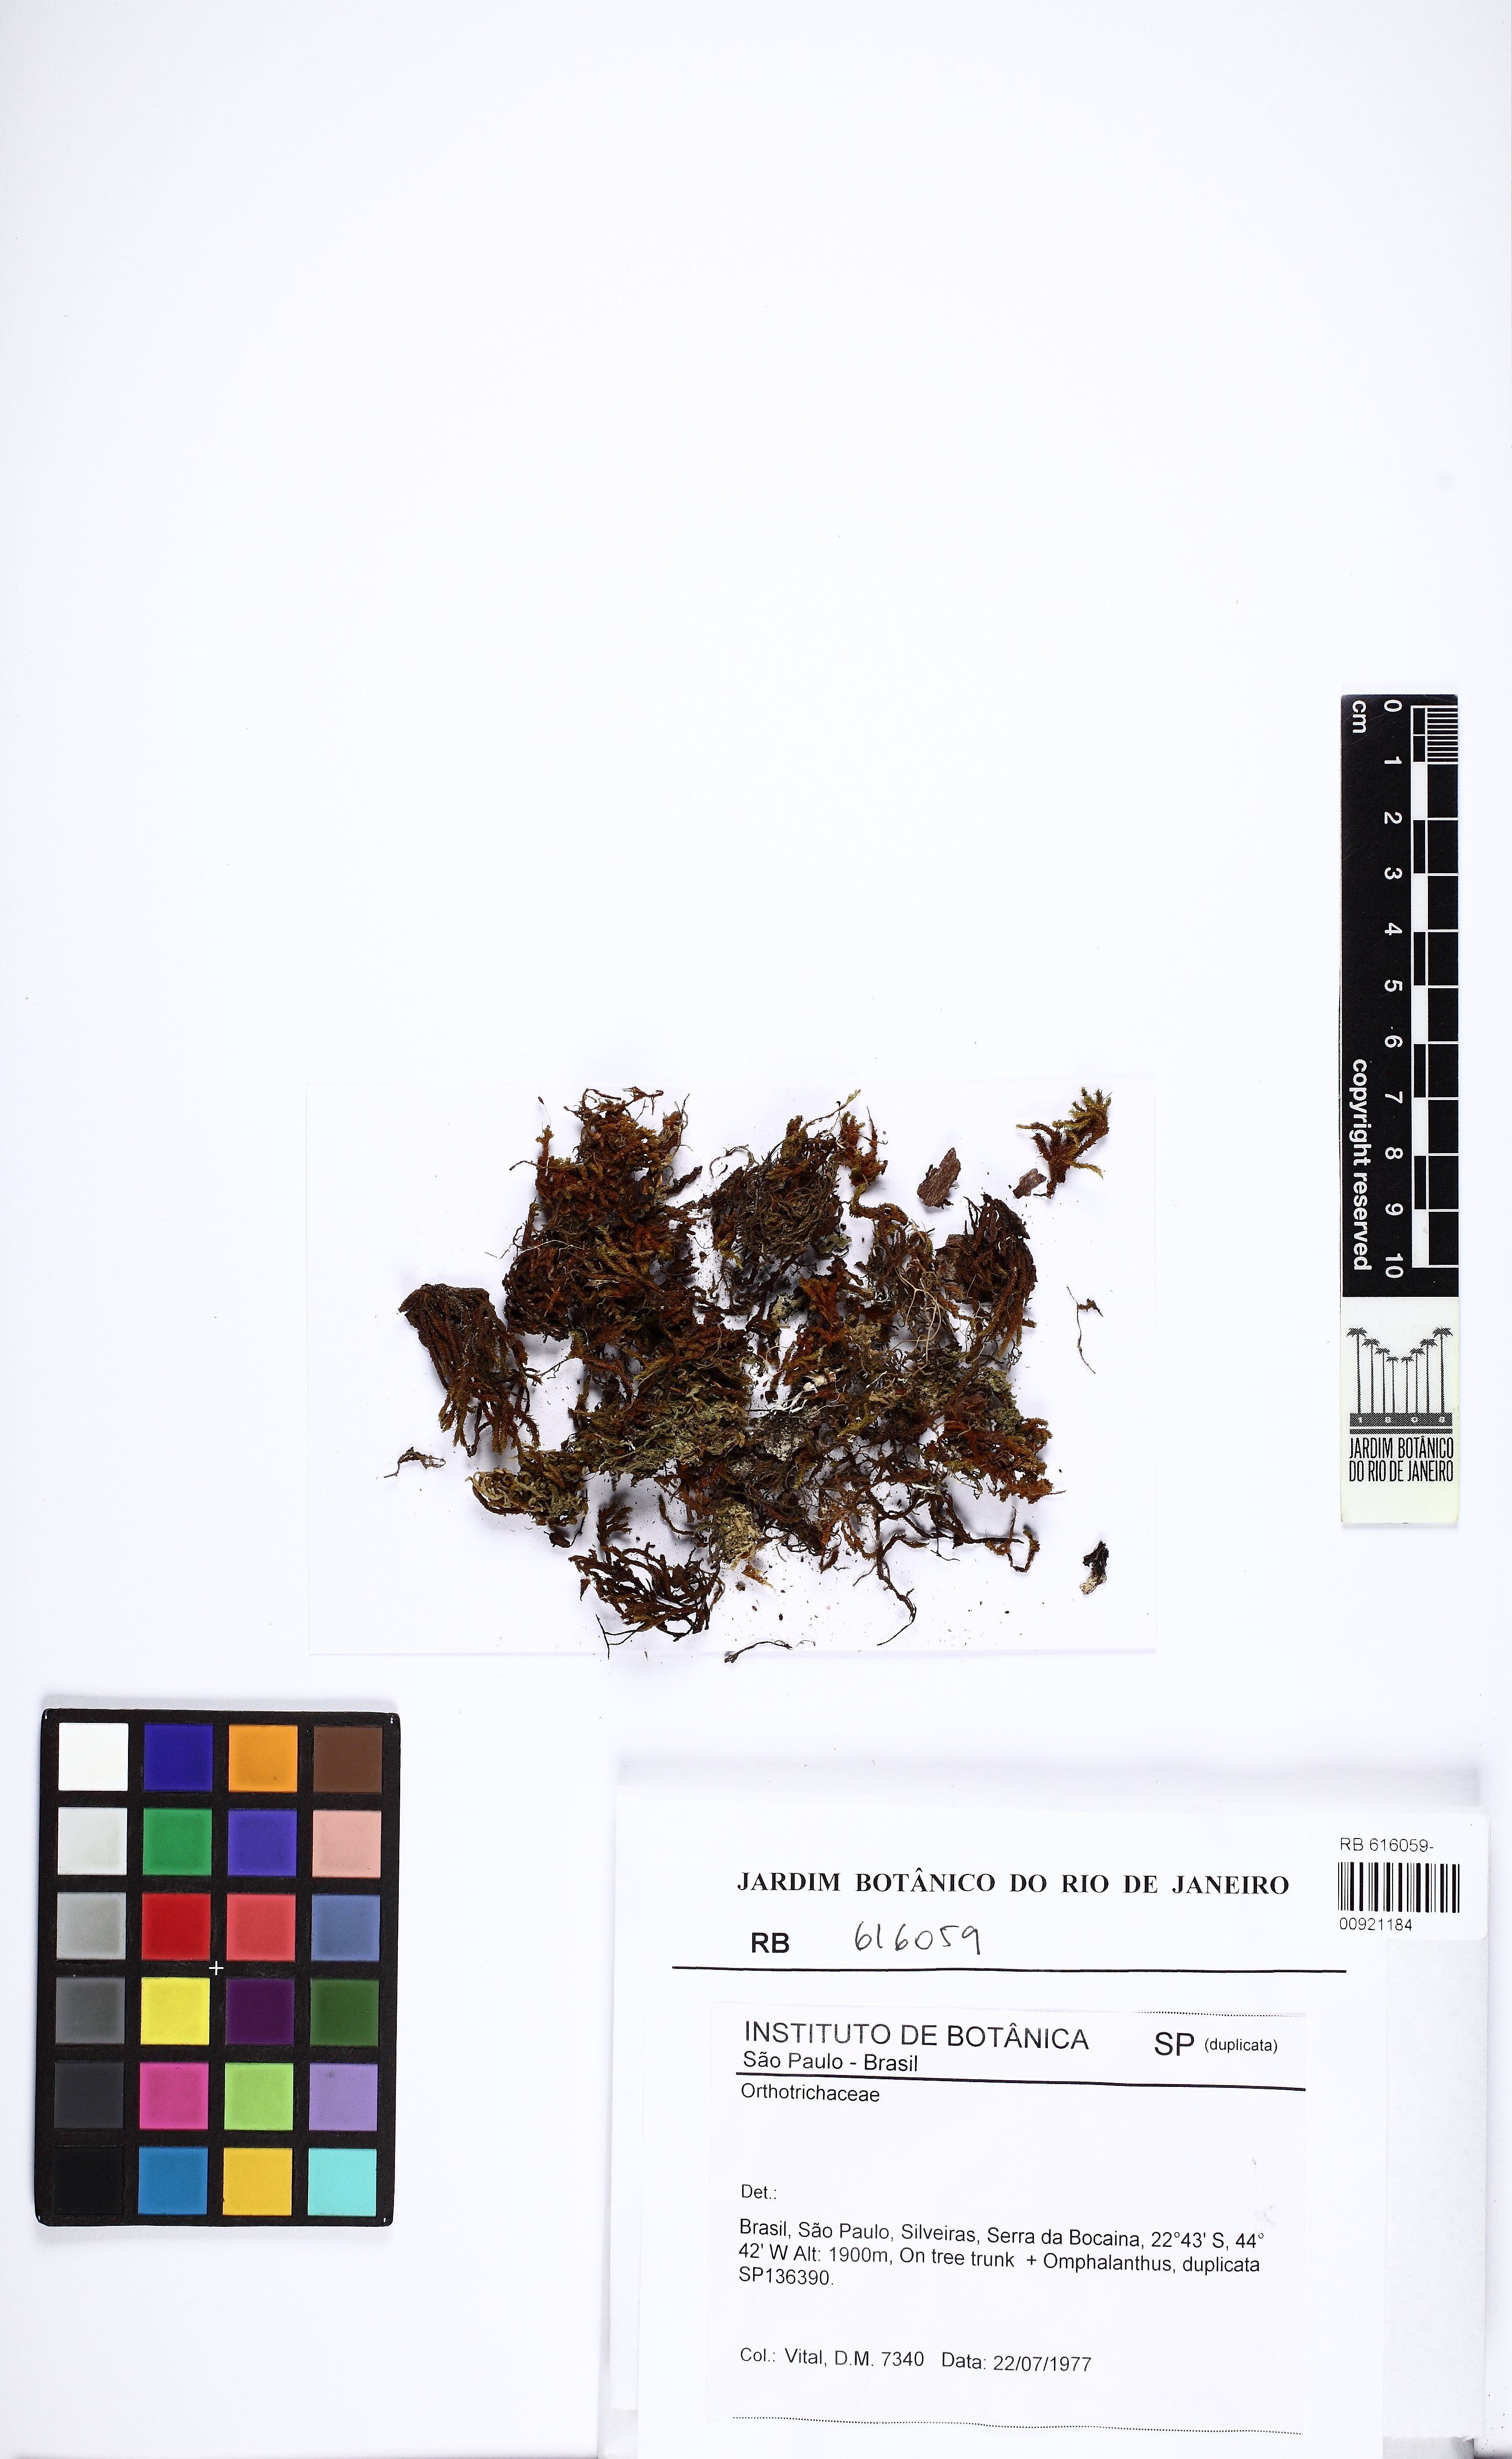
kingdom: Plantae
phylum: Bryophyta
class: Bryopsida
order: Orthotrichales
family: Orthotrichaceae
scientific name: Orthotrichaceae
